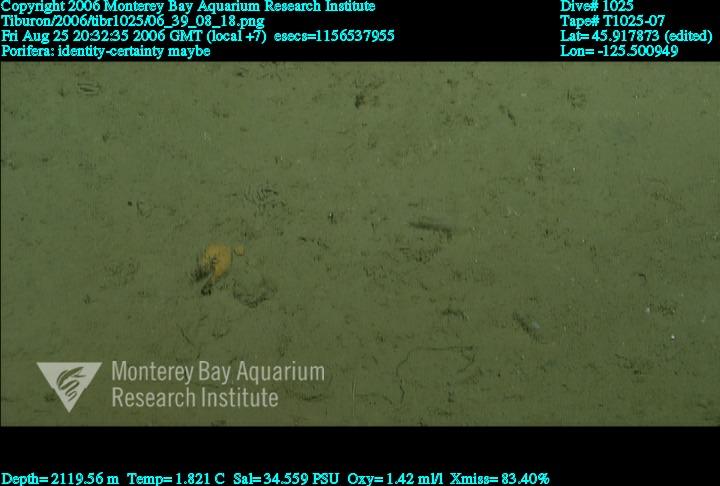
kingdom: Animalia
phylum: Porifera
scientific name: Porifera
